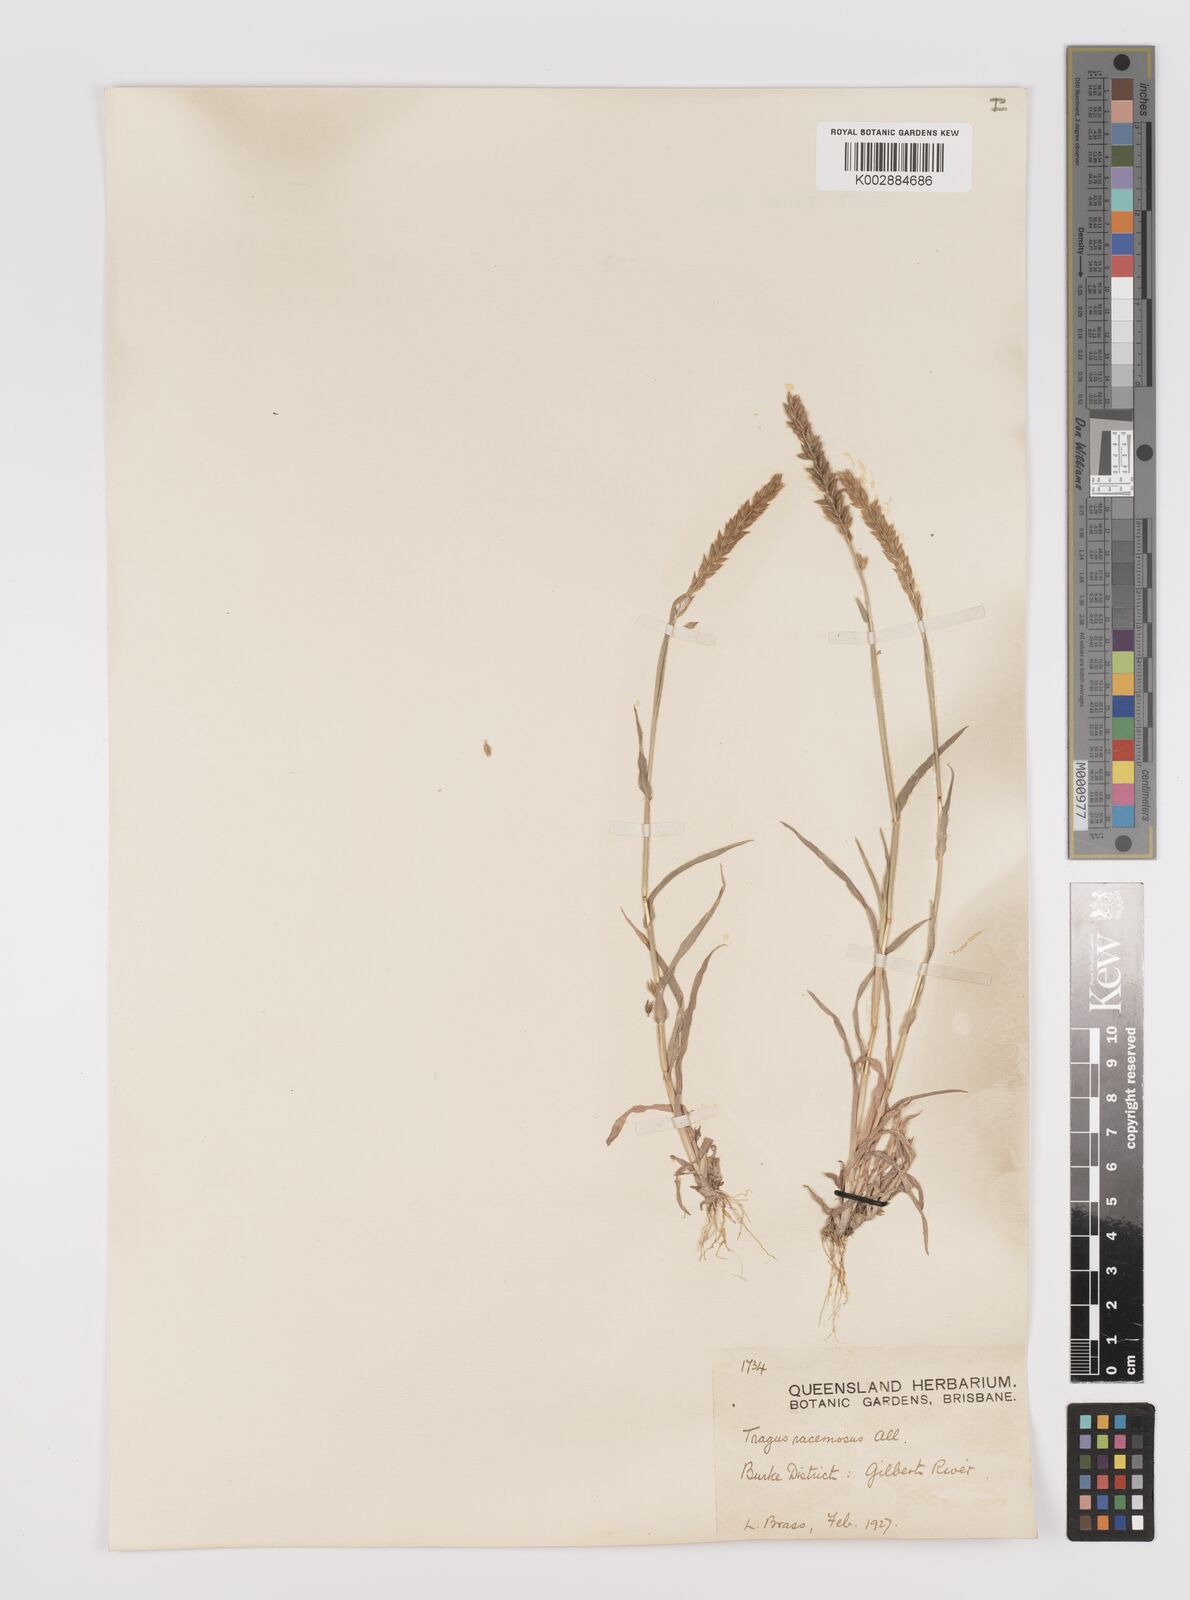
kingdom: Plantae
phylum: Tracheophyta
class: Liliopsida
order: Poales
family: Poaceae
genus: Tragus
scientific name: Tragus australianus
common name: Australian bur-grass
